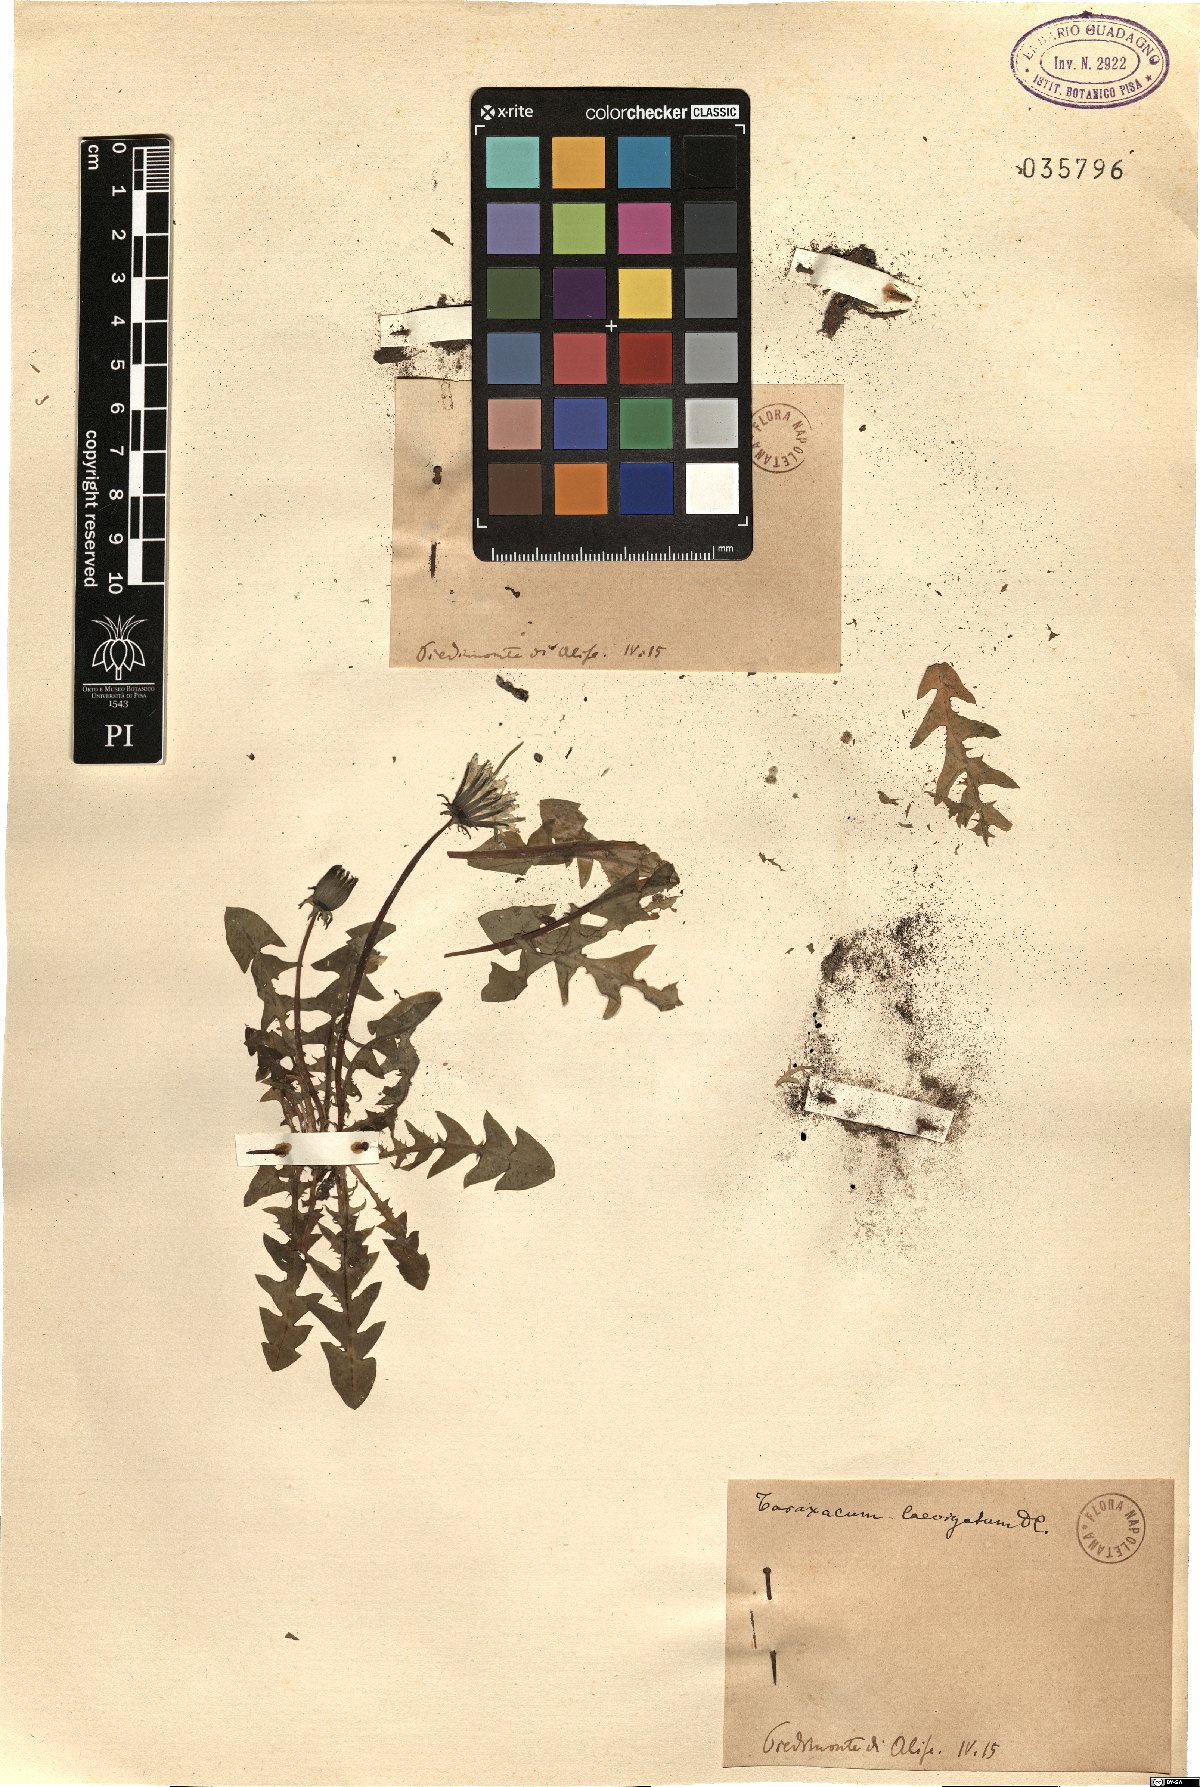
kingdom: Plantae
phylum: Tracheophyta
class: Magnoliopsida
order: Asterales
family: Asteraceae
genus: Taraxacum
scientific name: Taraxacum erythrospermum
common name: Rock dandelion
